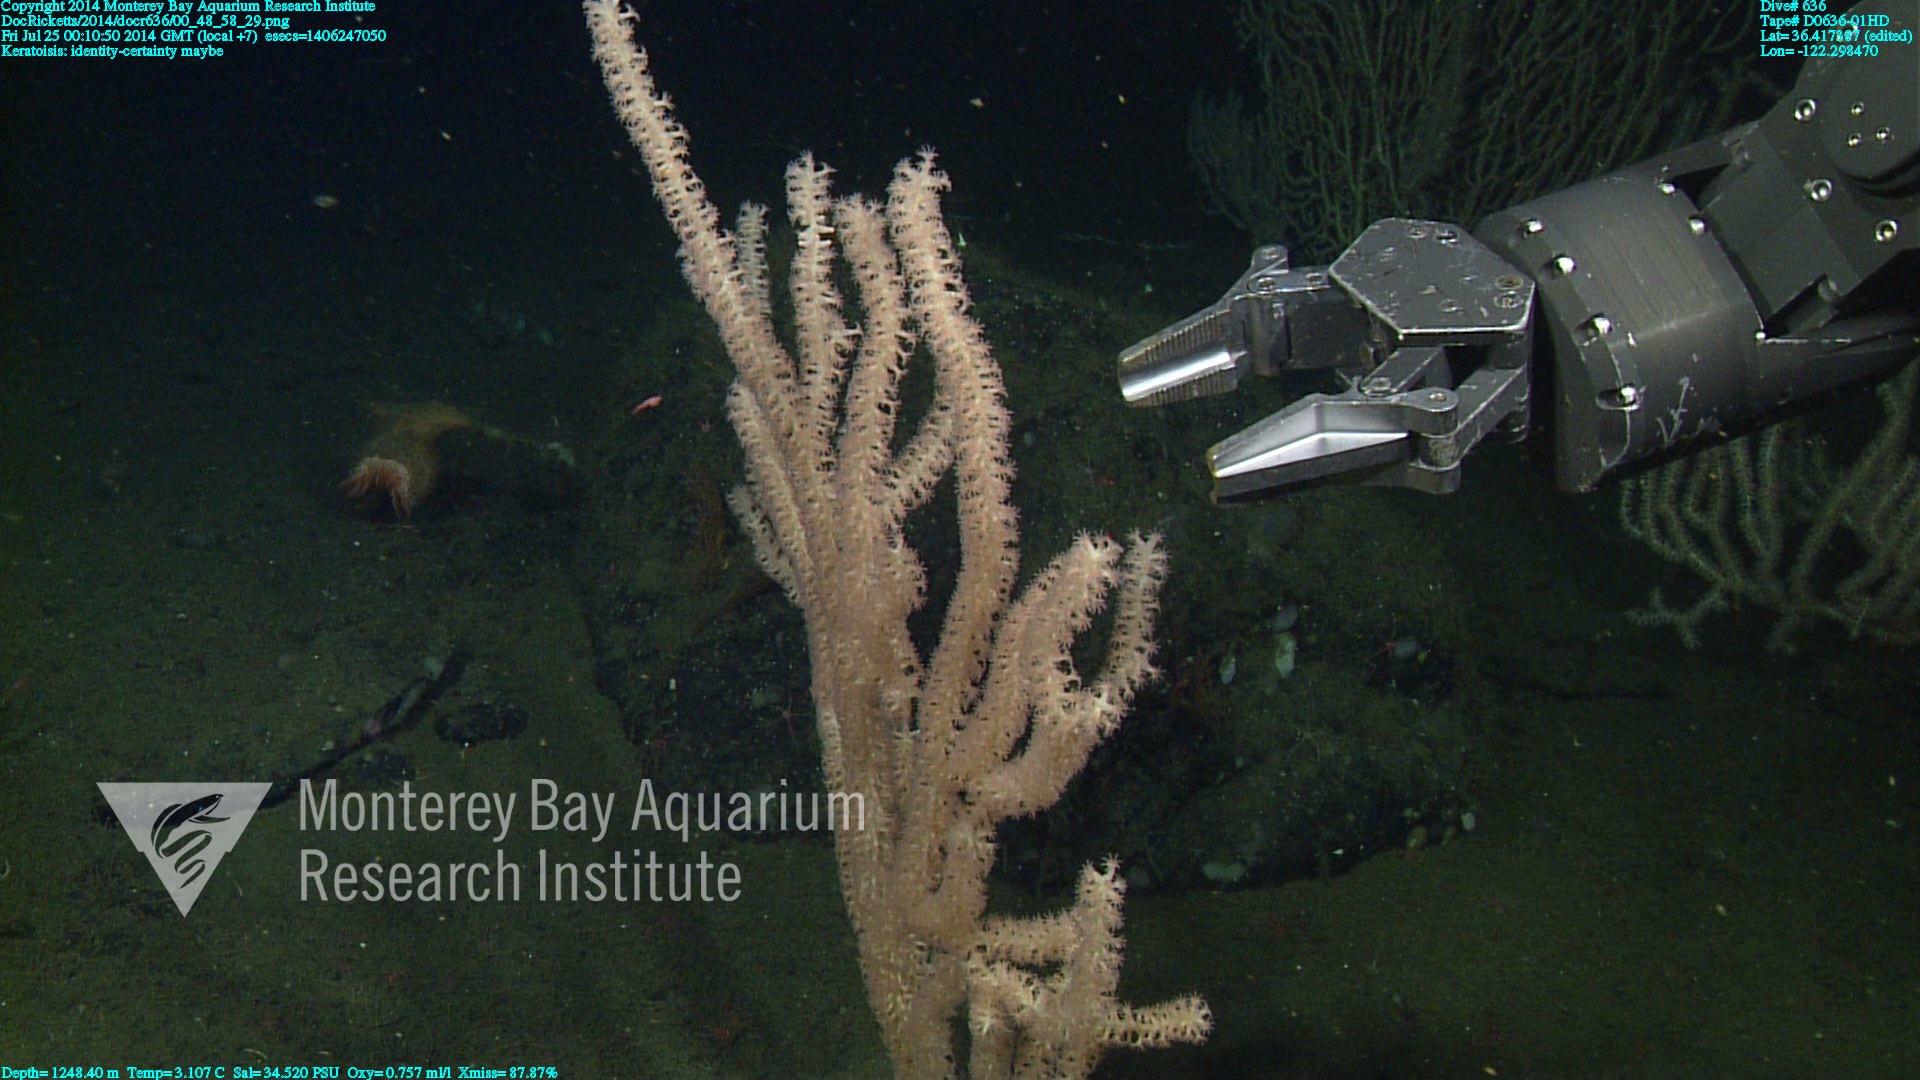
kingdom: Animalia
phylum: Cnidaria
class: Anthozoa
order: Scleralcyonacea
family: Keratoisididae
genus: Keratoisis
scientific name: Keratoisis
